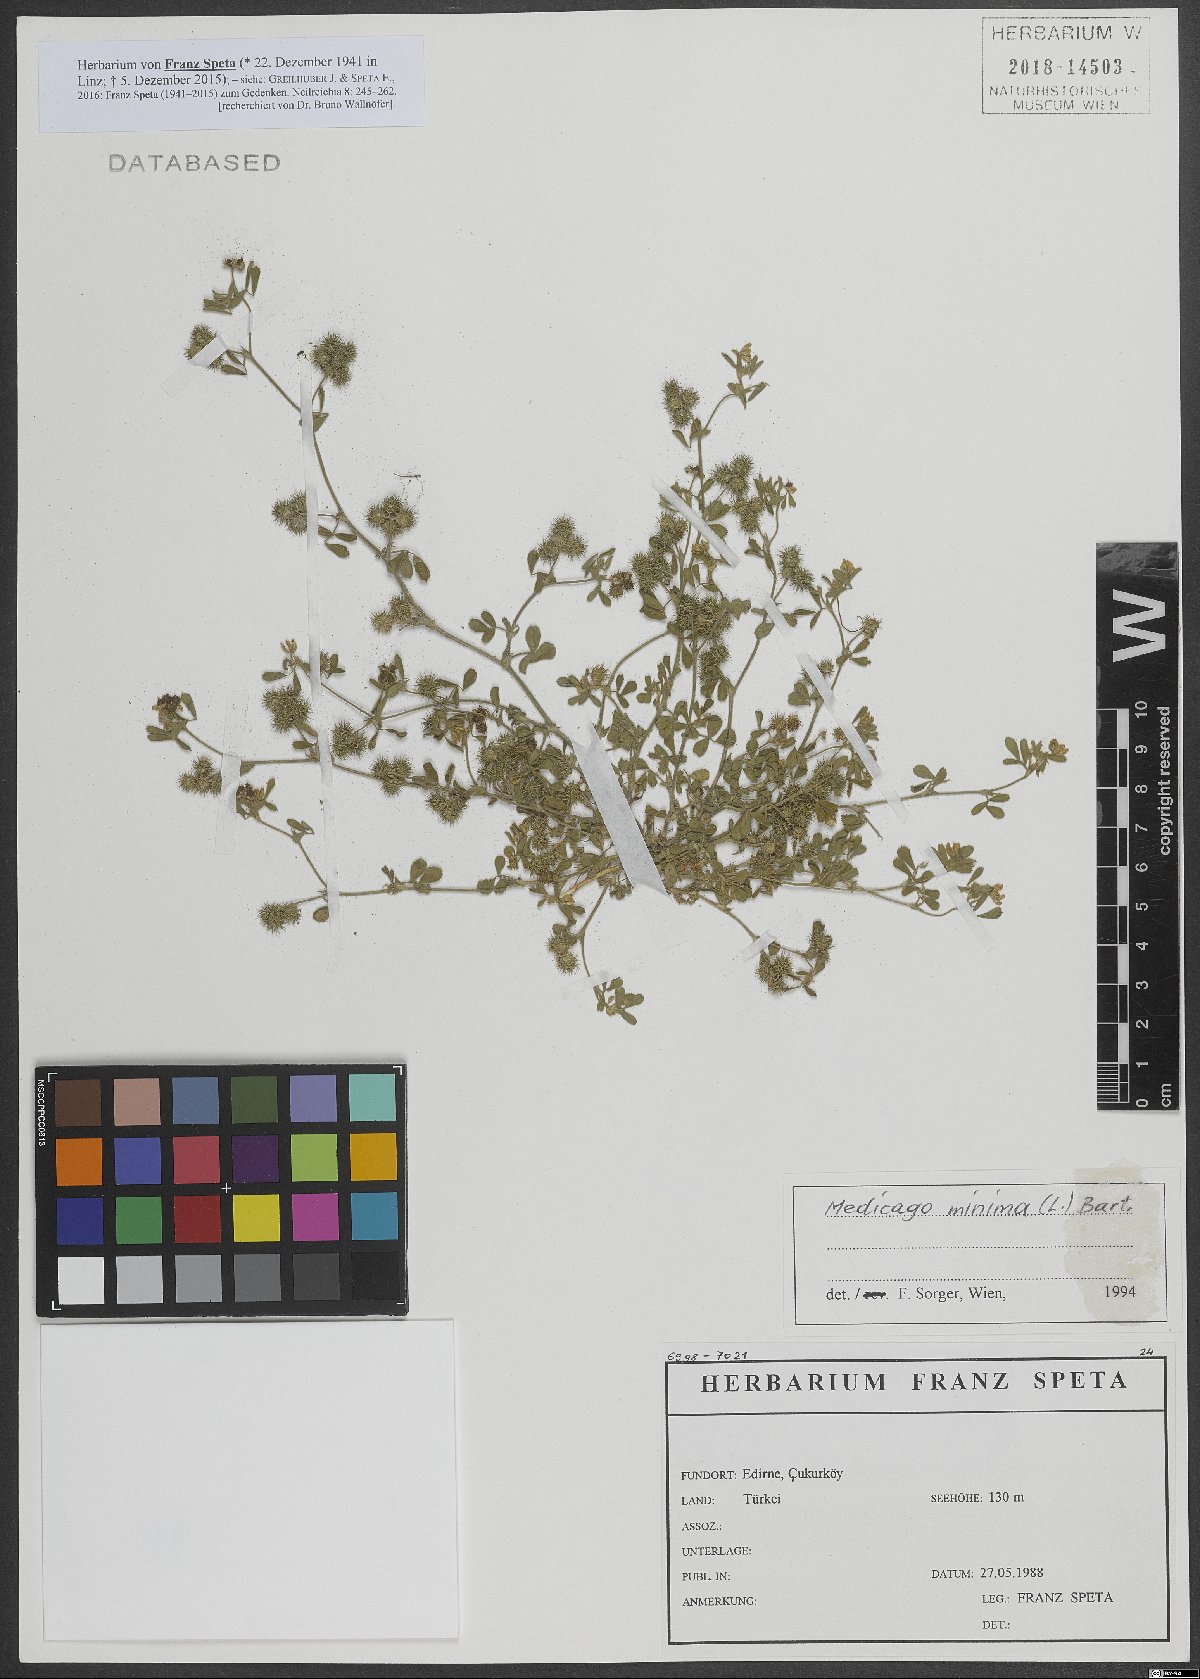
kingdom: Plantae
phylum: Tracheophyta
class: Magnoliopsida
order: Fabales
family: Fabaceae
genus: Medicago
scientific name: Medicago minima
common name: Little bur-clover
